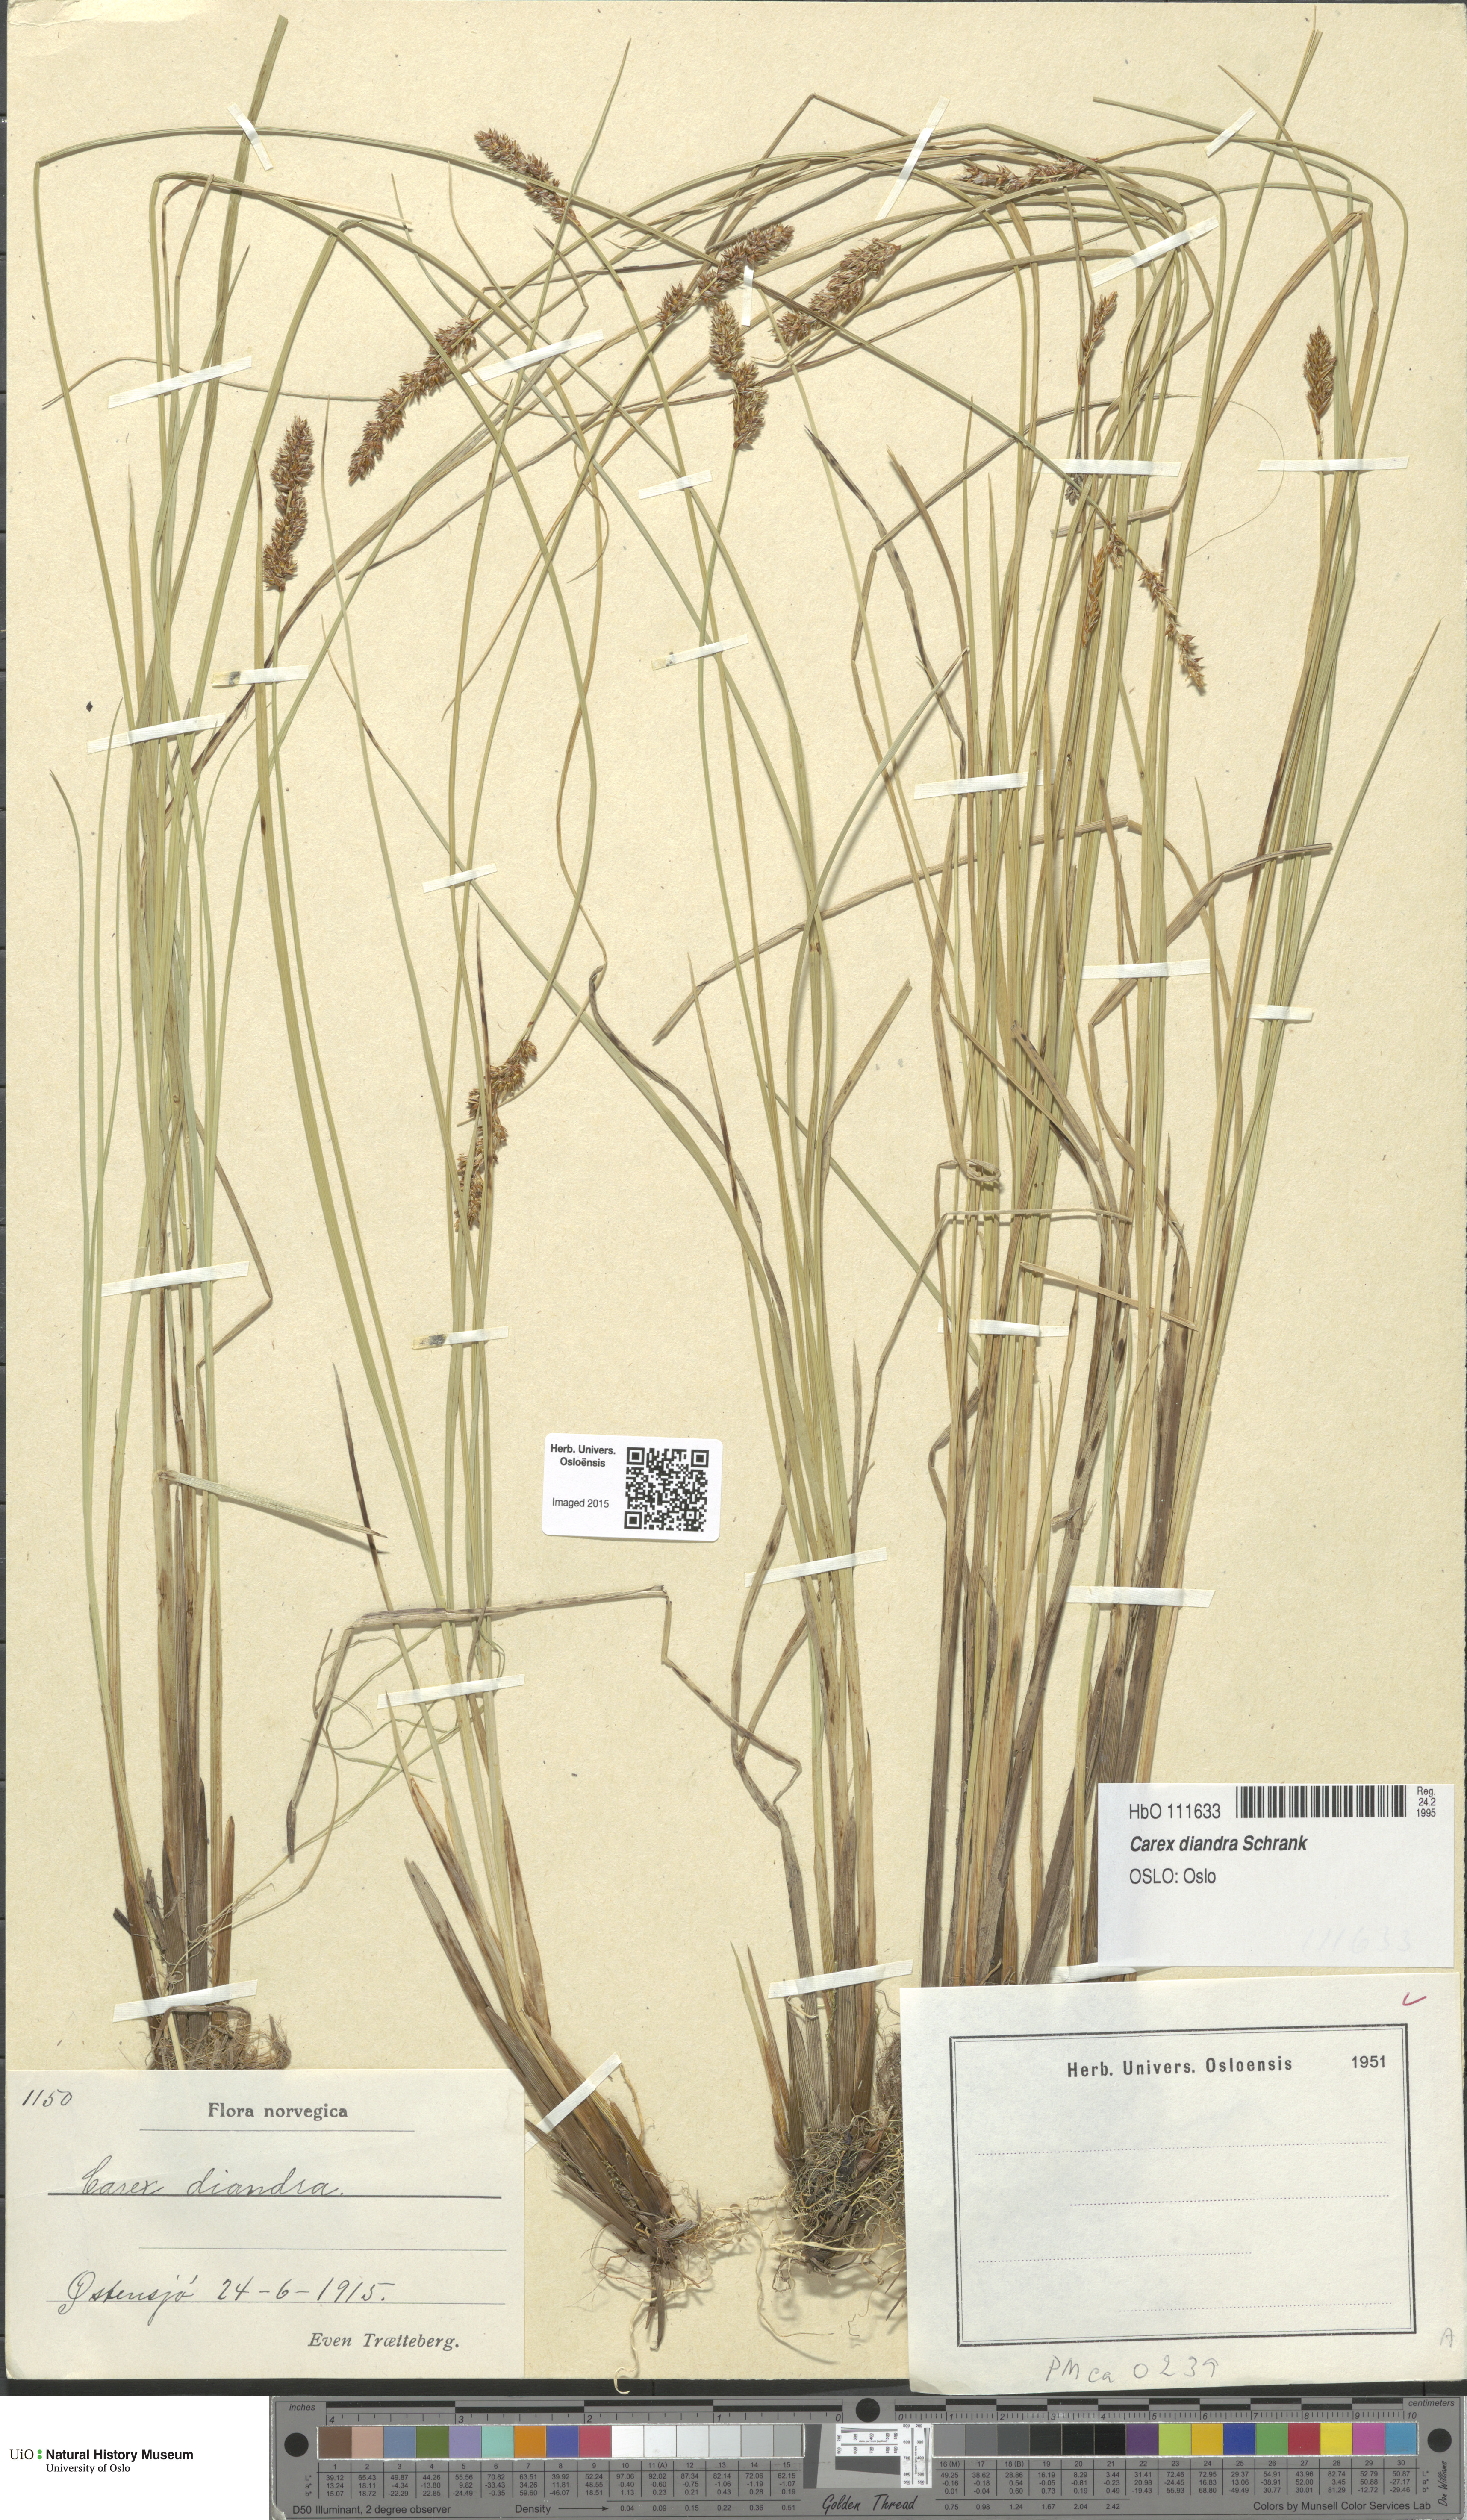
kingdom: Plantae
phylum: Tracheophyta
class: Liliopsida
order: Poales
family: Cyperaceae
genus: Carex
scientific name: Carex diandra
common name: Lesser tussock-sedge
